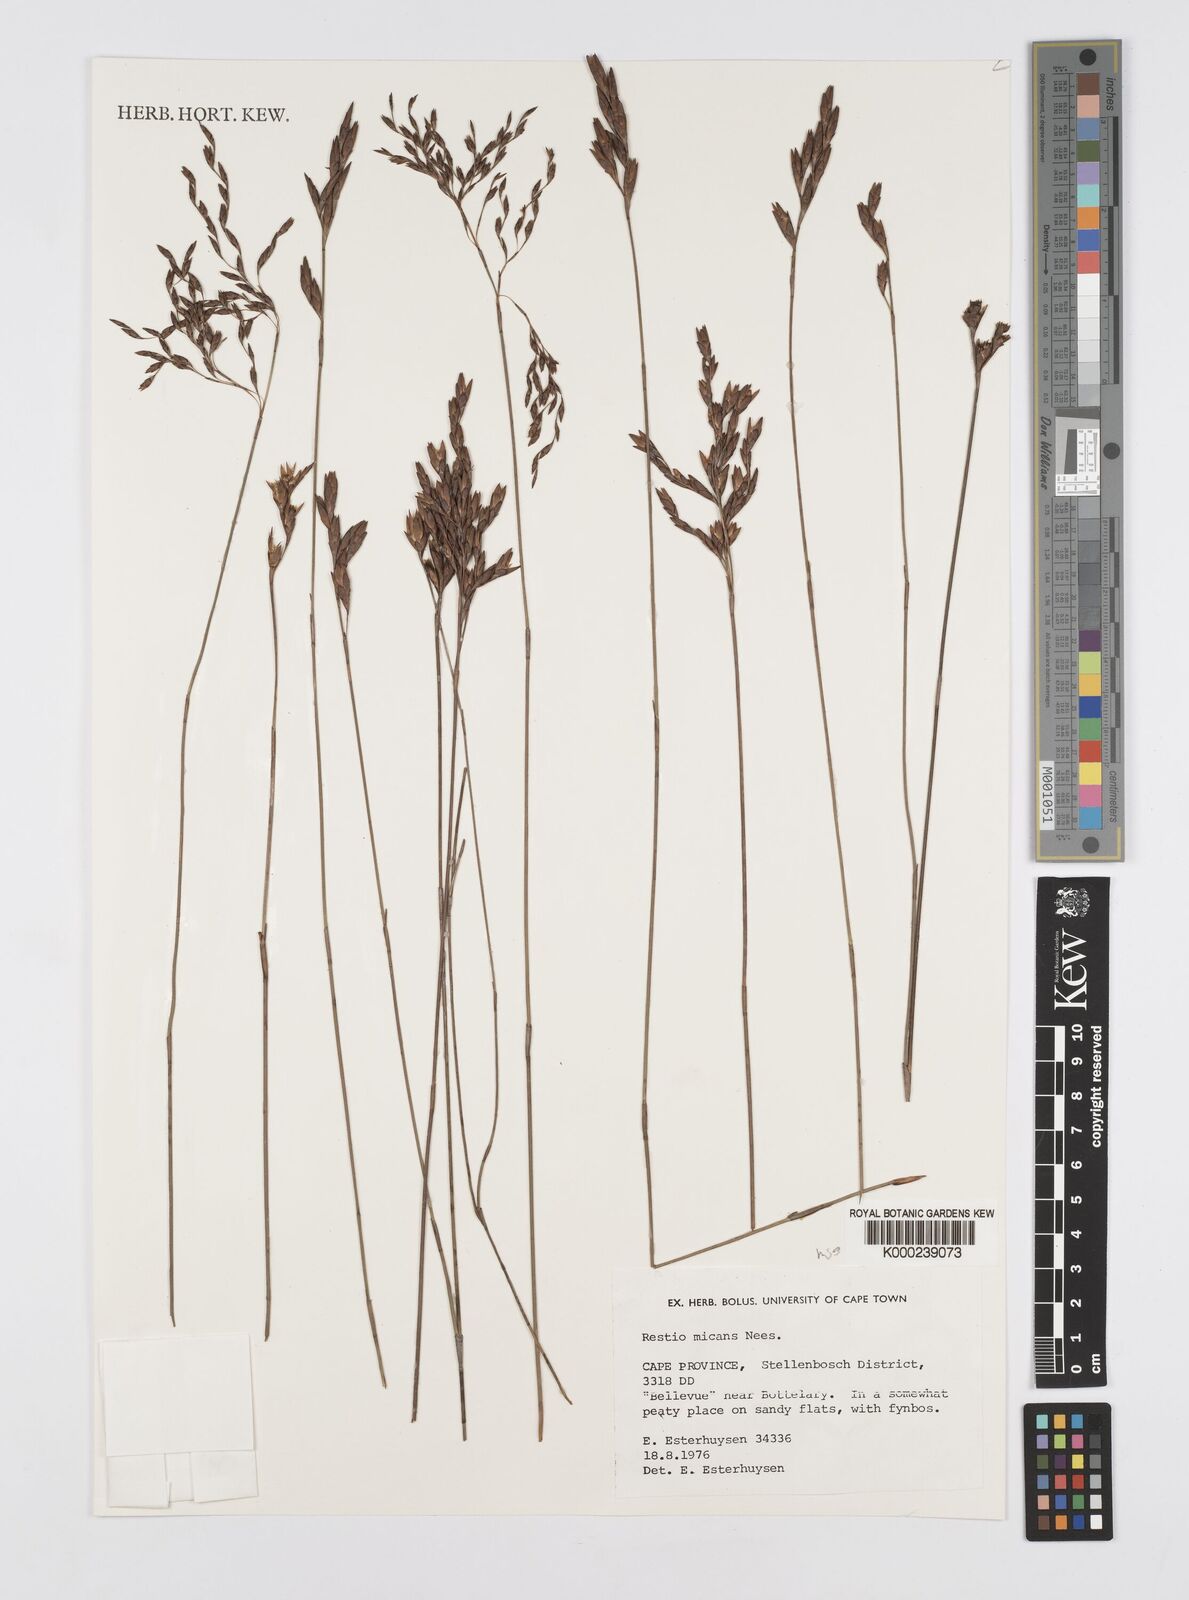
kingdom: Plantae
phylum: Tracheophyta
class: Liliopsida
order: Poales
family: Restionaceae
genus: Restio
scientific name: Restio micans
